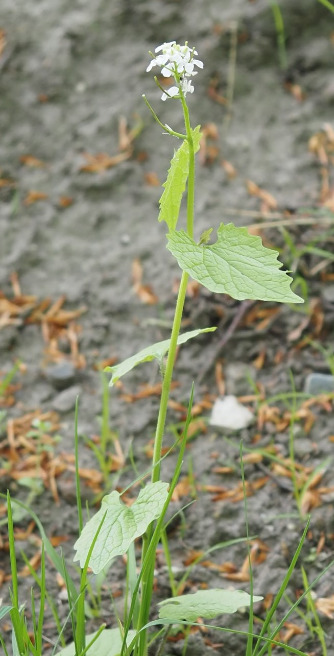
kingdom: Plantae
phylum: Tracheophyta
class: Magnoliopsida
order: Brassicales
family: Brassicaceae
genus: Alliaria
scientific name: Alliaria petiolata
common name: Løgkarse
